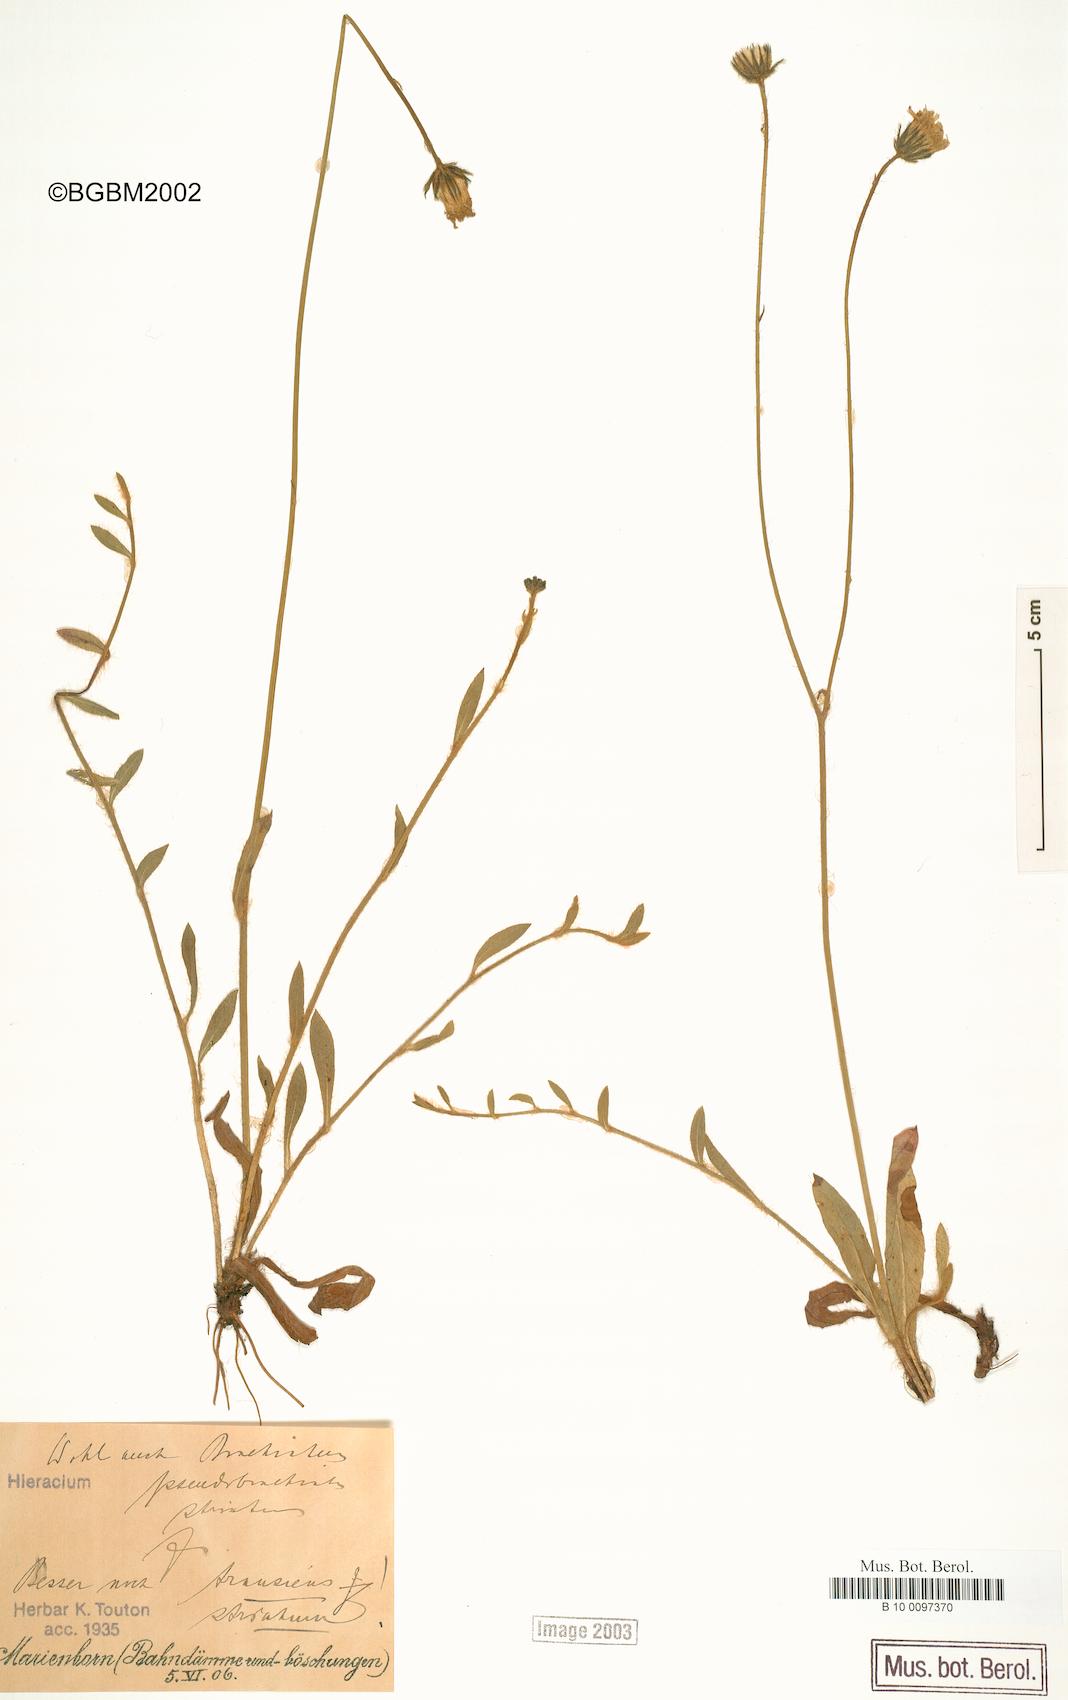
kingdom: Plantae
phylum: Tracheophyta
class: Magnoliopsida
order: Asterales
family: Asteraceae
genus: Pilosella
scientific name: Pilosella acutifolia
